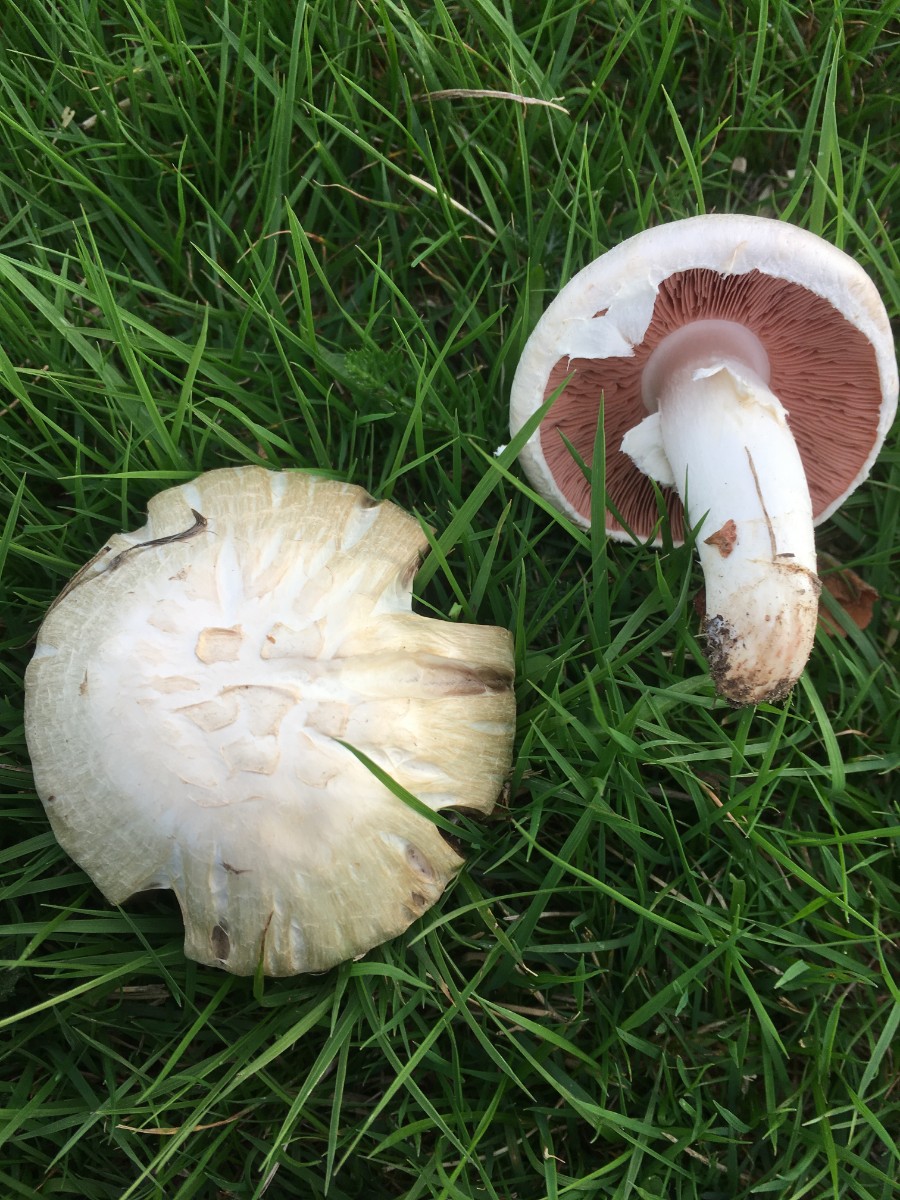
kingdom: Fungi
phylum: Basidiomycota
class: Agaricomycetes
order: Agaricales
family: Agaricaceae
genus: Agaricus
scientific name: Agaricus campestris
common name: mark-champignon
